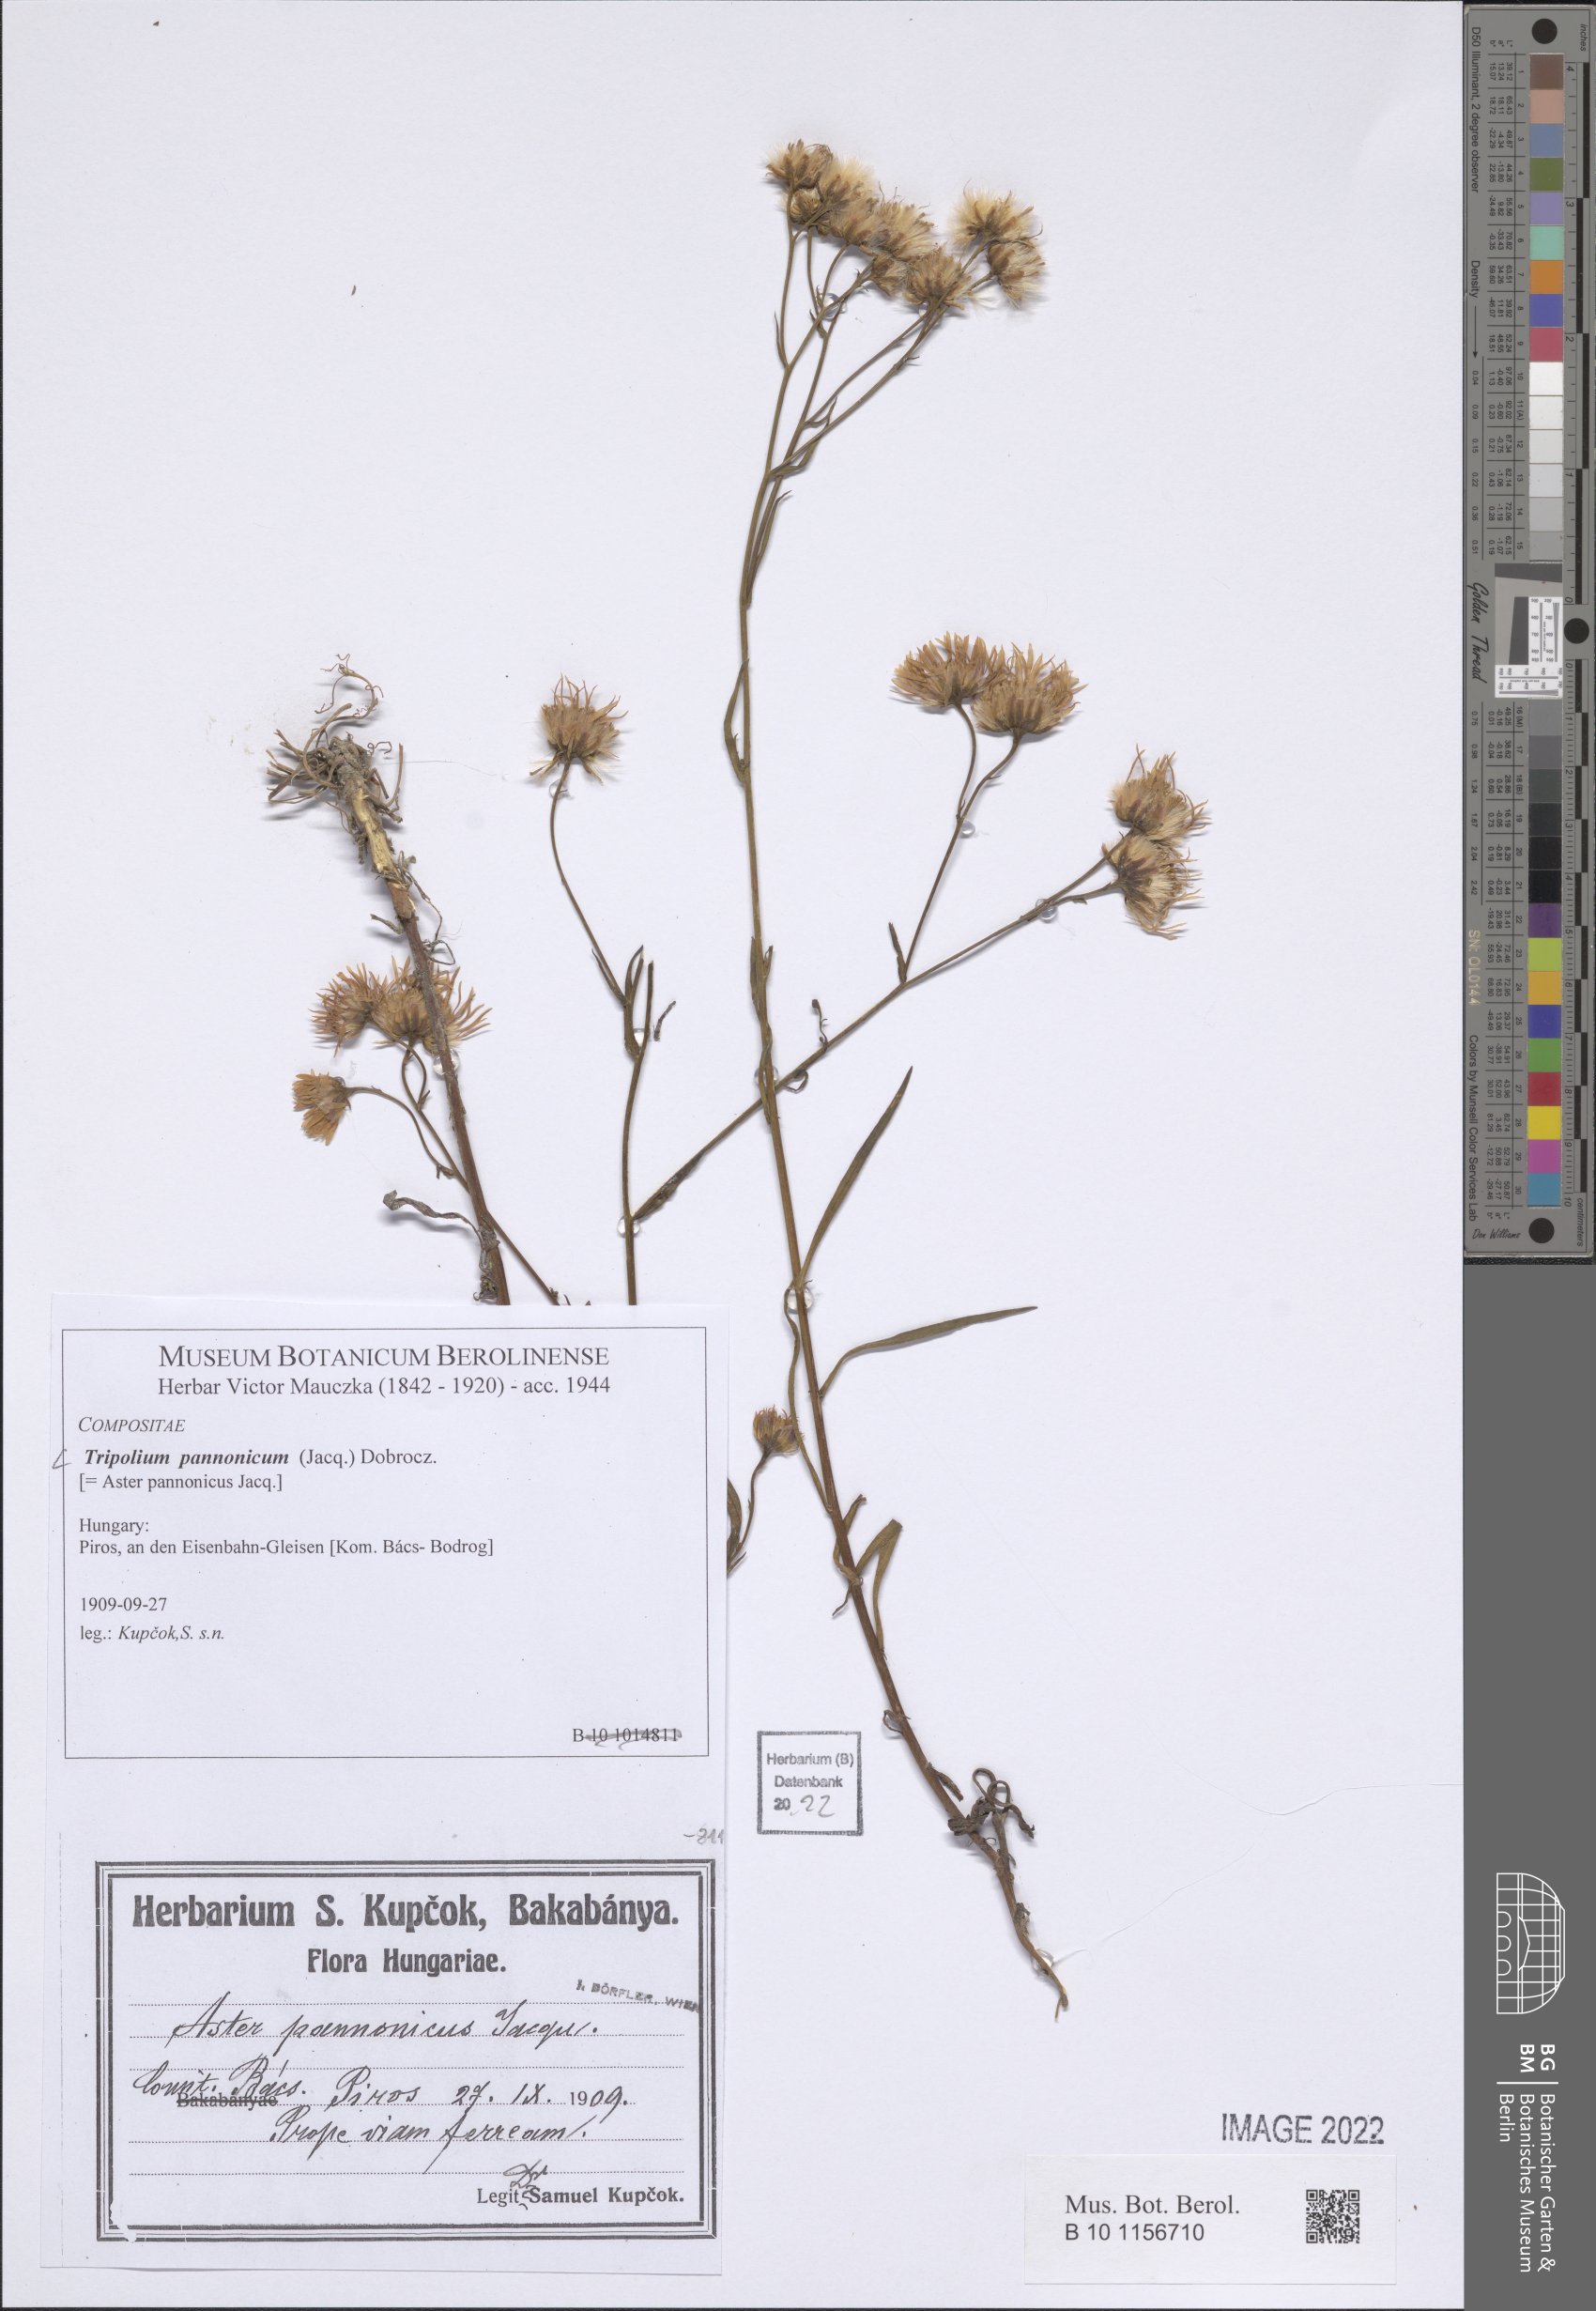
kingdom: Plantae
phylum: Tracheophyta
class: Magnoliopsida
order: Asterales
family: Asteraceae
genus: Tripolium
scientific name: Tripolium pannonicum
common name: Sea aster
